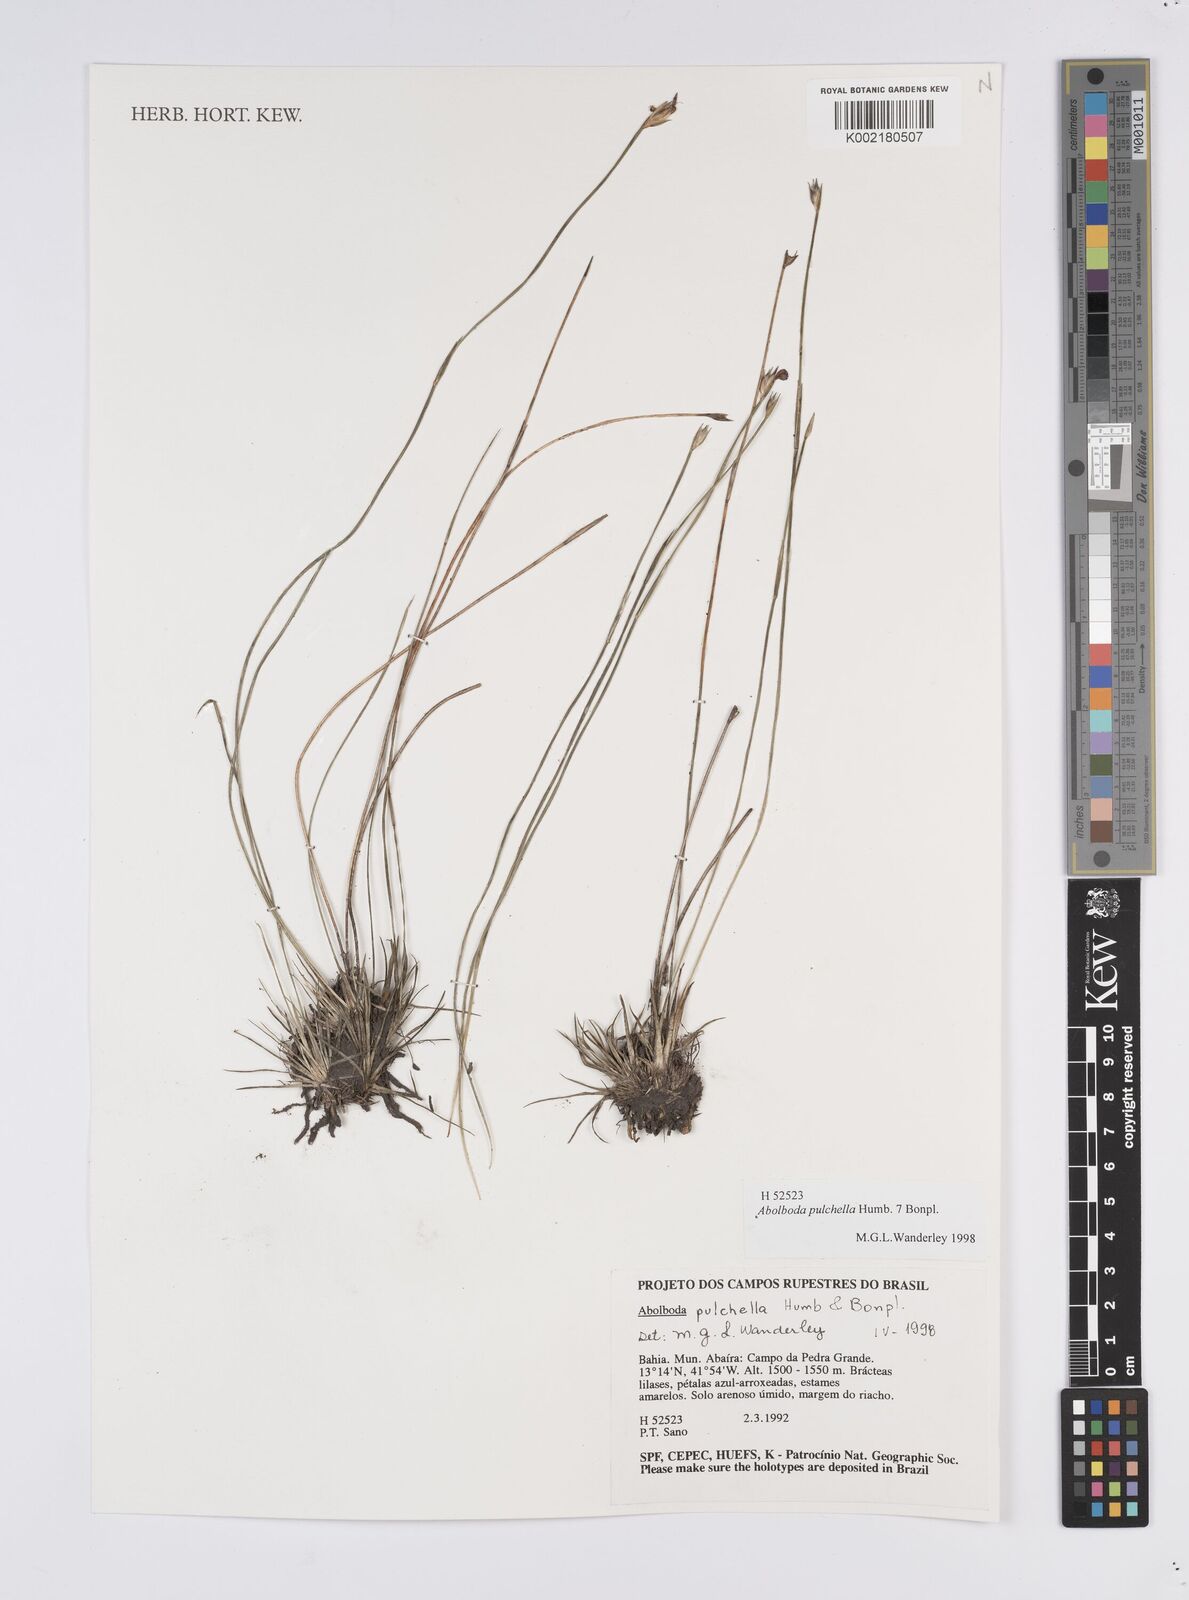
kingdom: Plantae
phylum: Tracheophyta
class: Liliopsida
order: Poales
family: Xyridaceae
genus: Abolboda
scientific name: Abolboda pulchella
